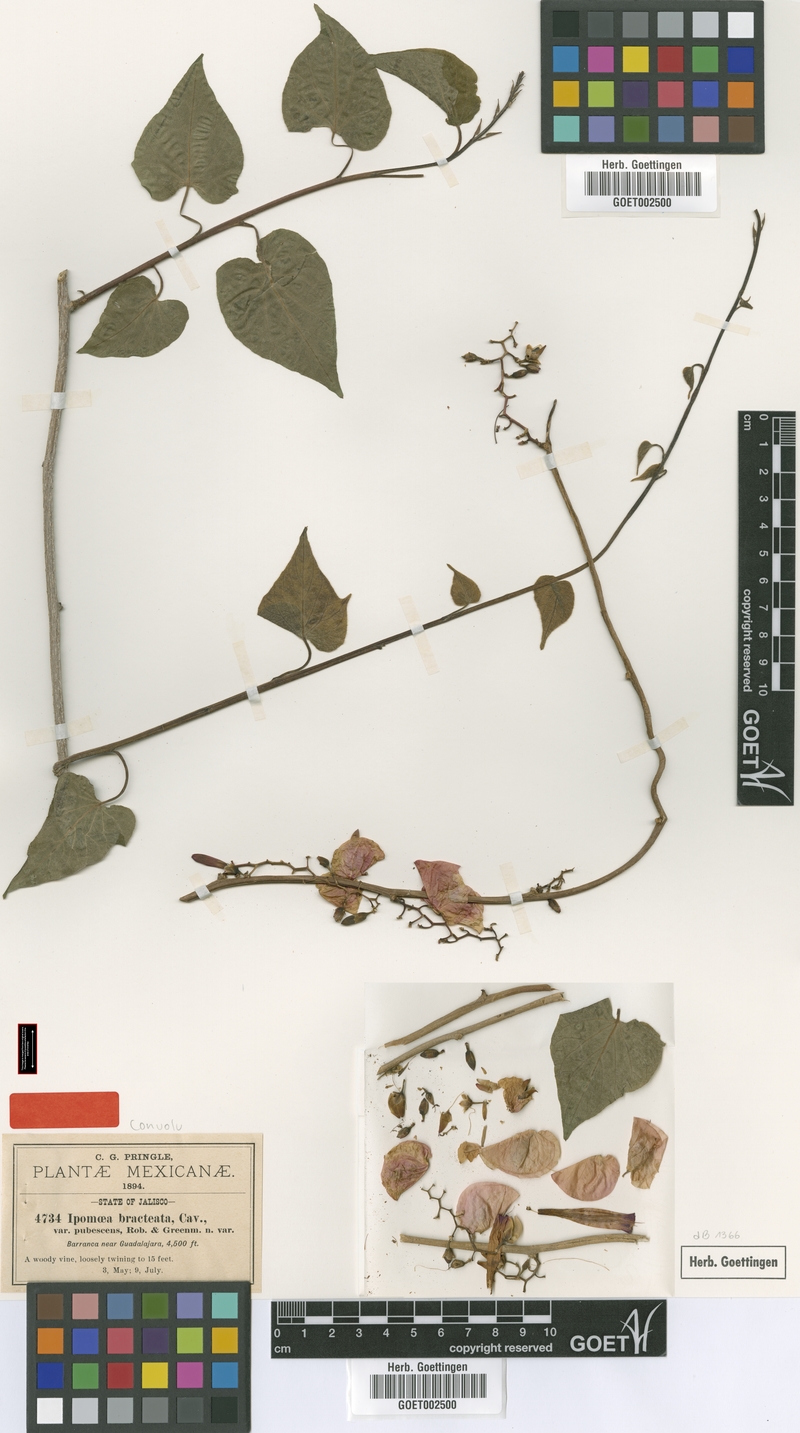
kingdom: Plantae
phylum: Tracheophyta
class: Magnoliopsida
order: Solanales
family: Convolvulaceae
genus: Ipomoea
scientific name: Ipomoea bracteata
